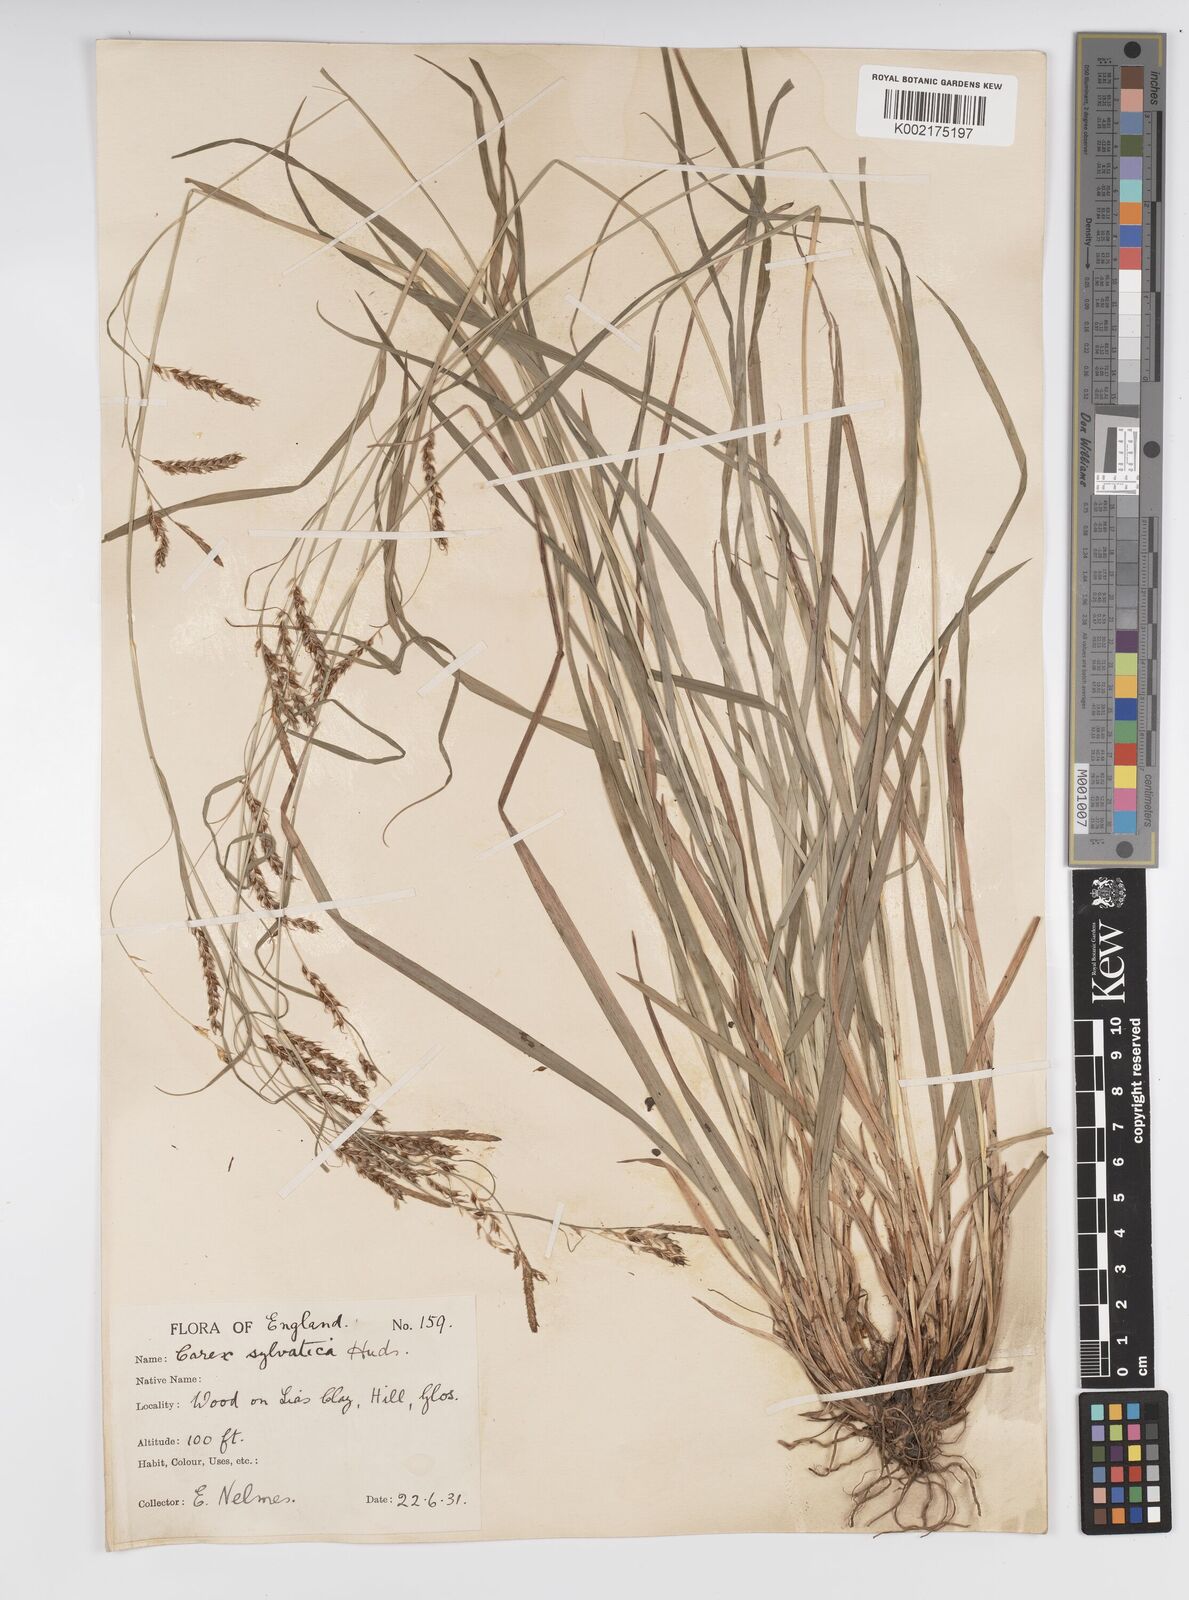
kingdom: Plantae
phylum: Tracheophyta
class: Liliopsida
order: Poales
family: Cyperaceae
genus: Carex
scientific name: Carex sylvatica
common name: Wood-sedge
